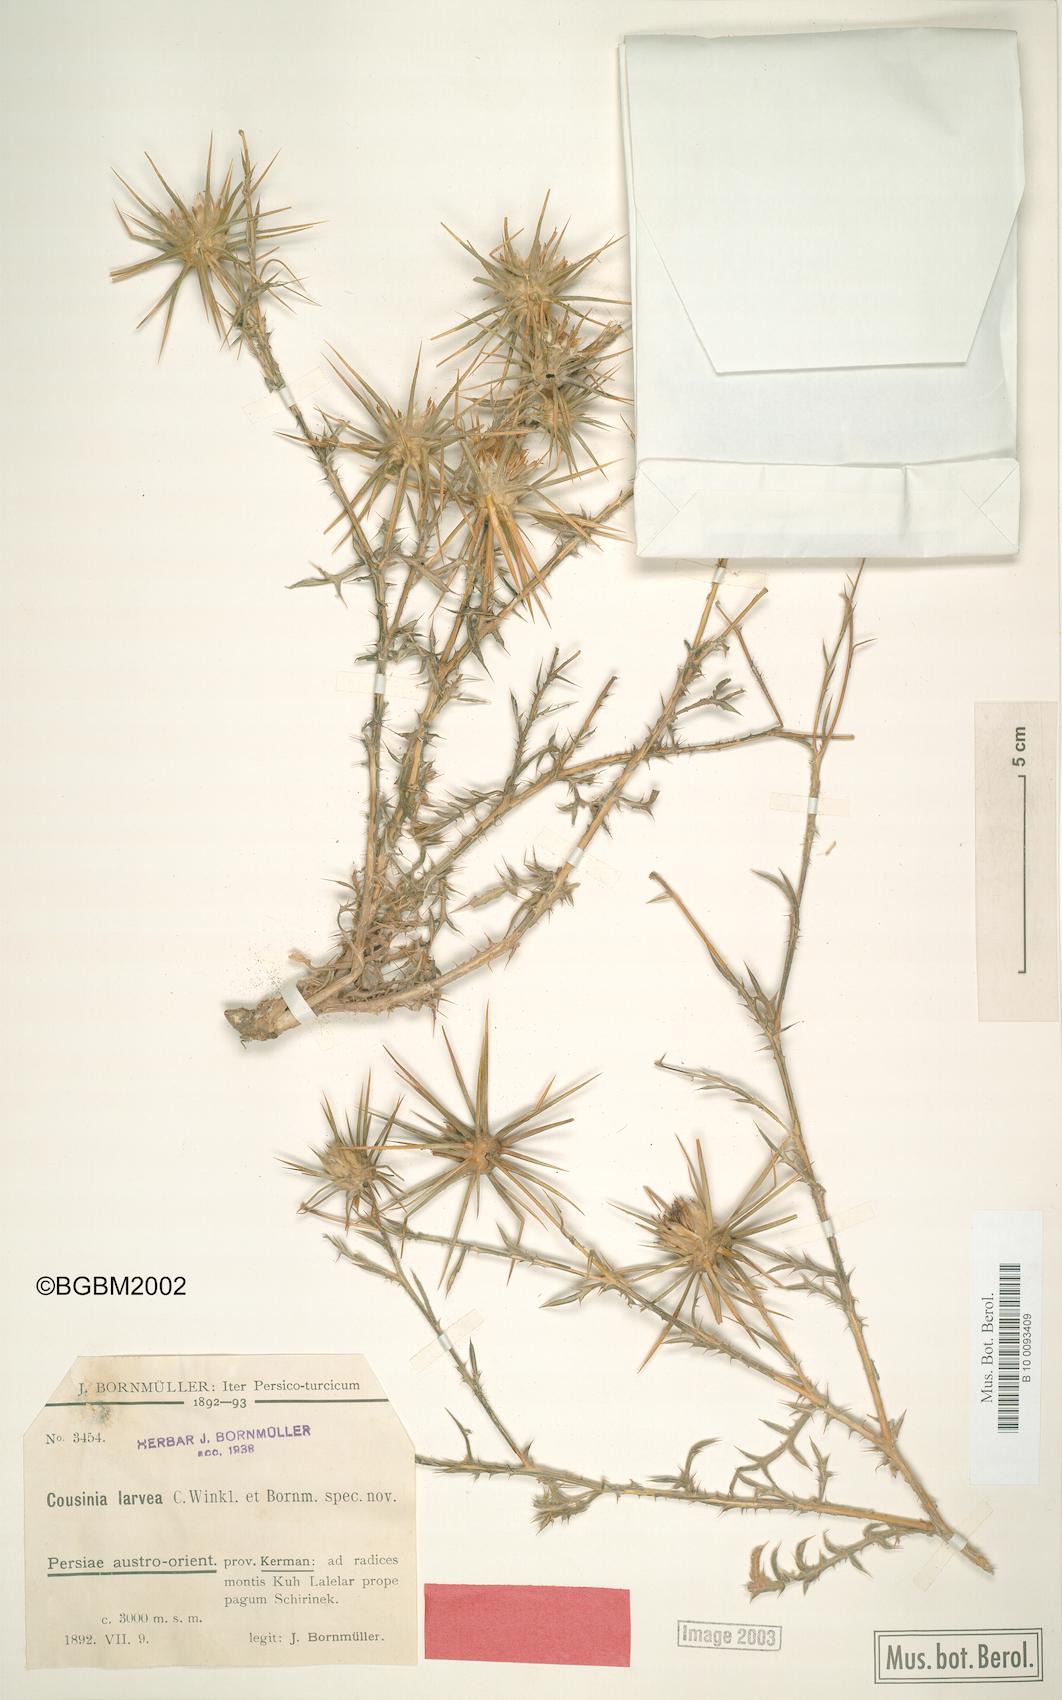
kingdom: Plantae
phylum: Tracheophyta
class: Magnoliopsida
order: Asterales
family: Asteraceae
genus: Cousinia
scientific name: Cousinia calcitrapa
